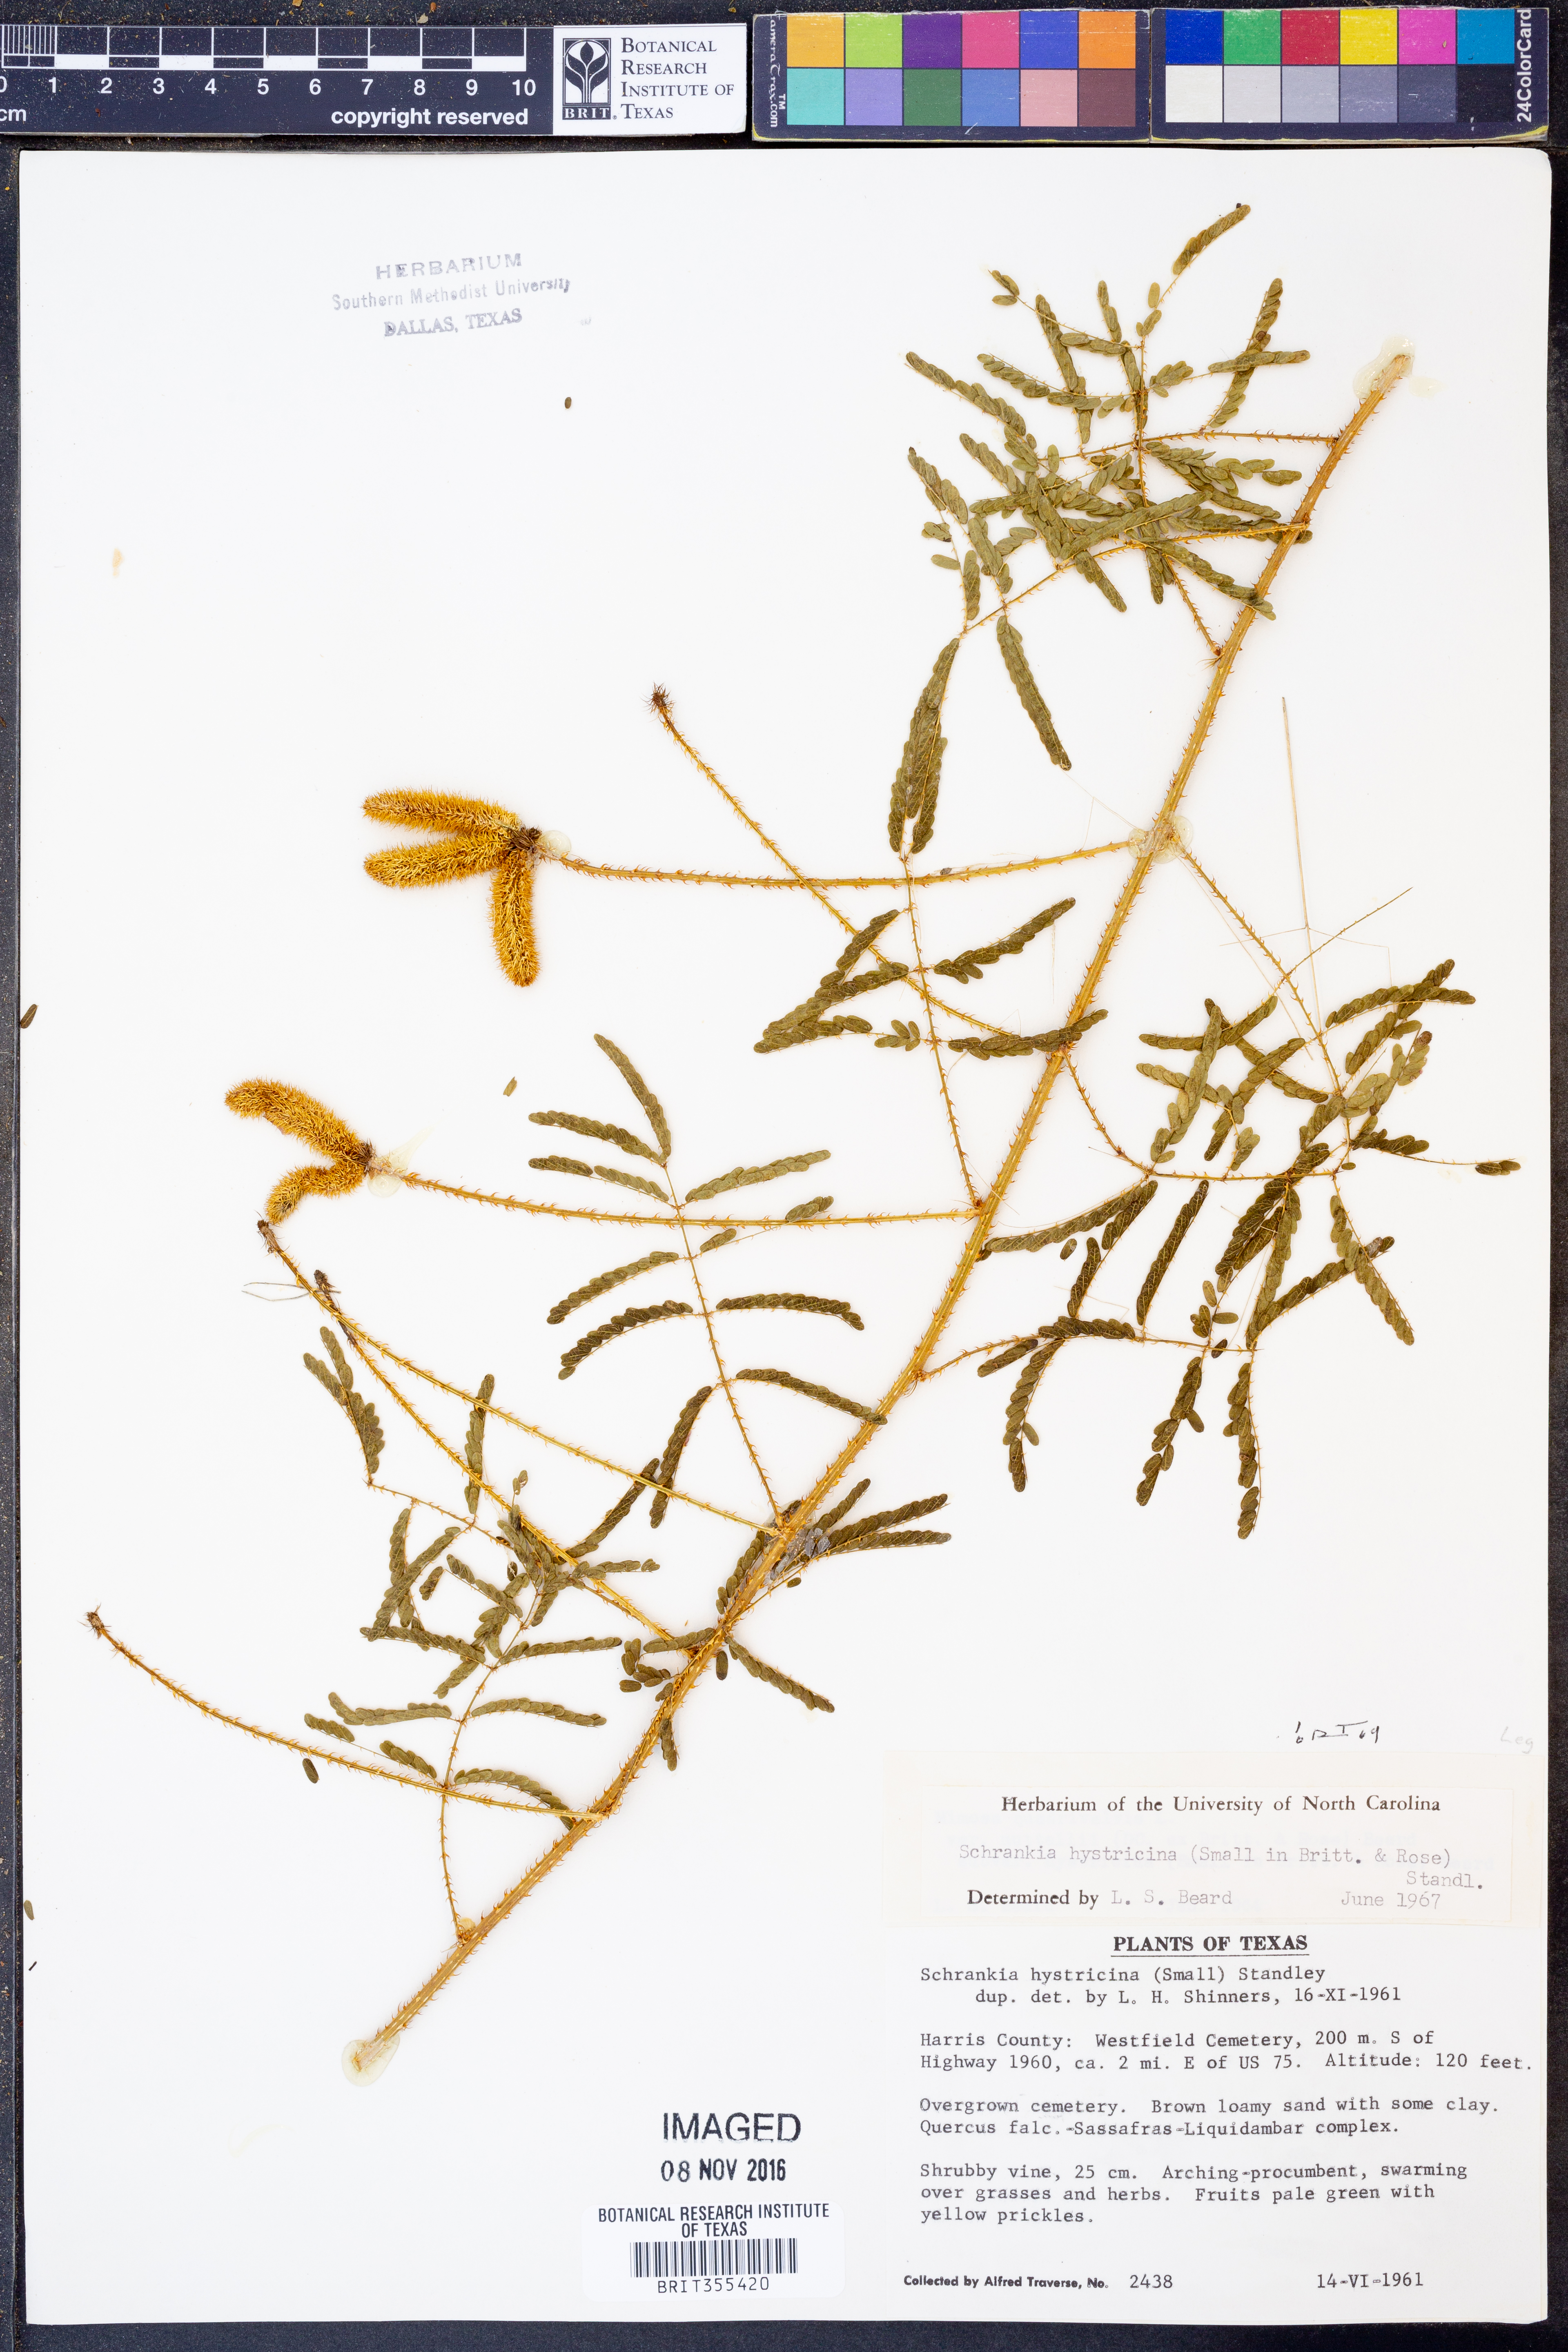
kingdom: Plantae
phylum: Tracheophyta
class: Magnoliopsida
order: Fabales
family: Fabaceae
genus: Mimosa
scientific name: Mimosa hystricina
